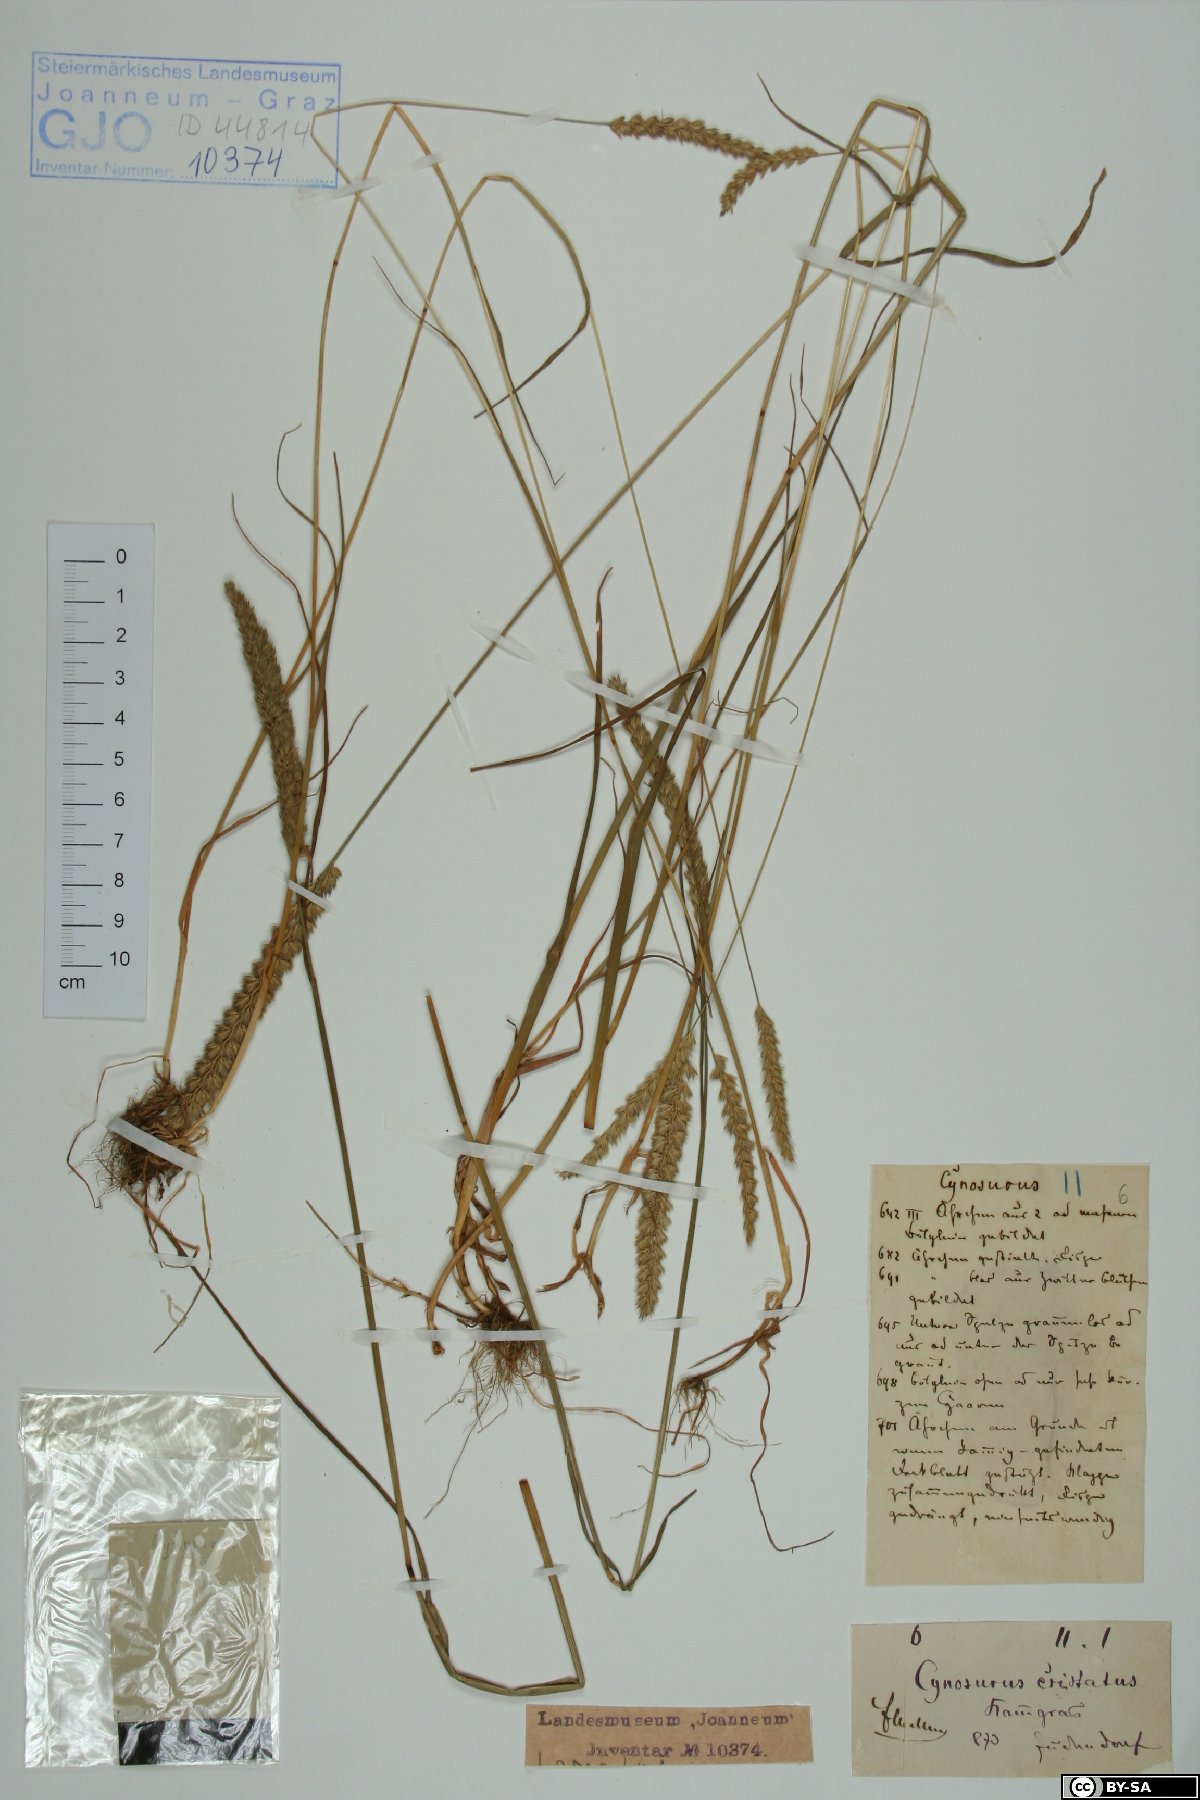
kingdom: Plantae
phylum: Tracheophyta
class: Liliopsida
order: Poales
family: Poaceae
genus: Cynosurus
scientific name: Cynosurus cristatus
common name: Crested dog's-tail
